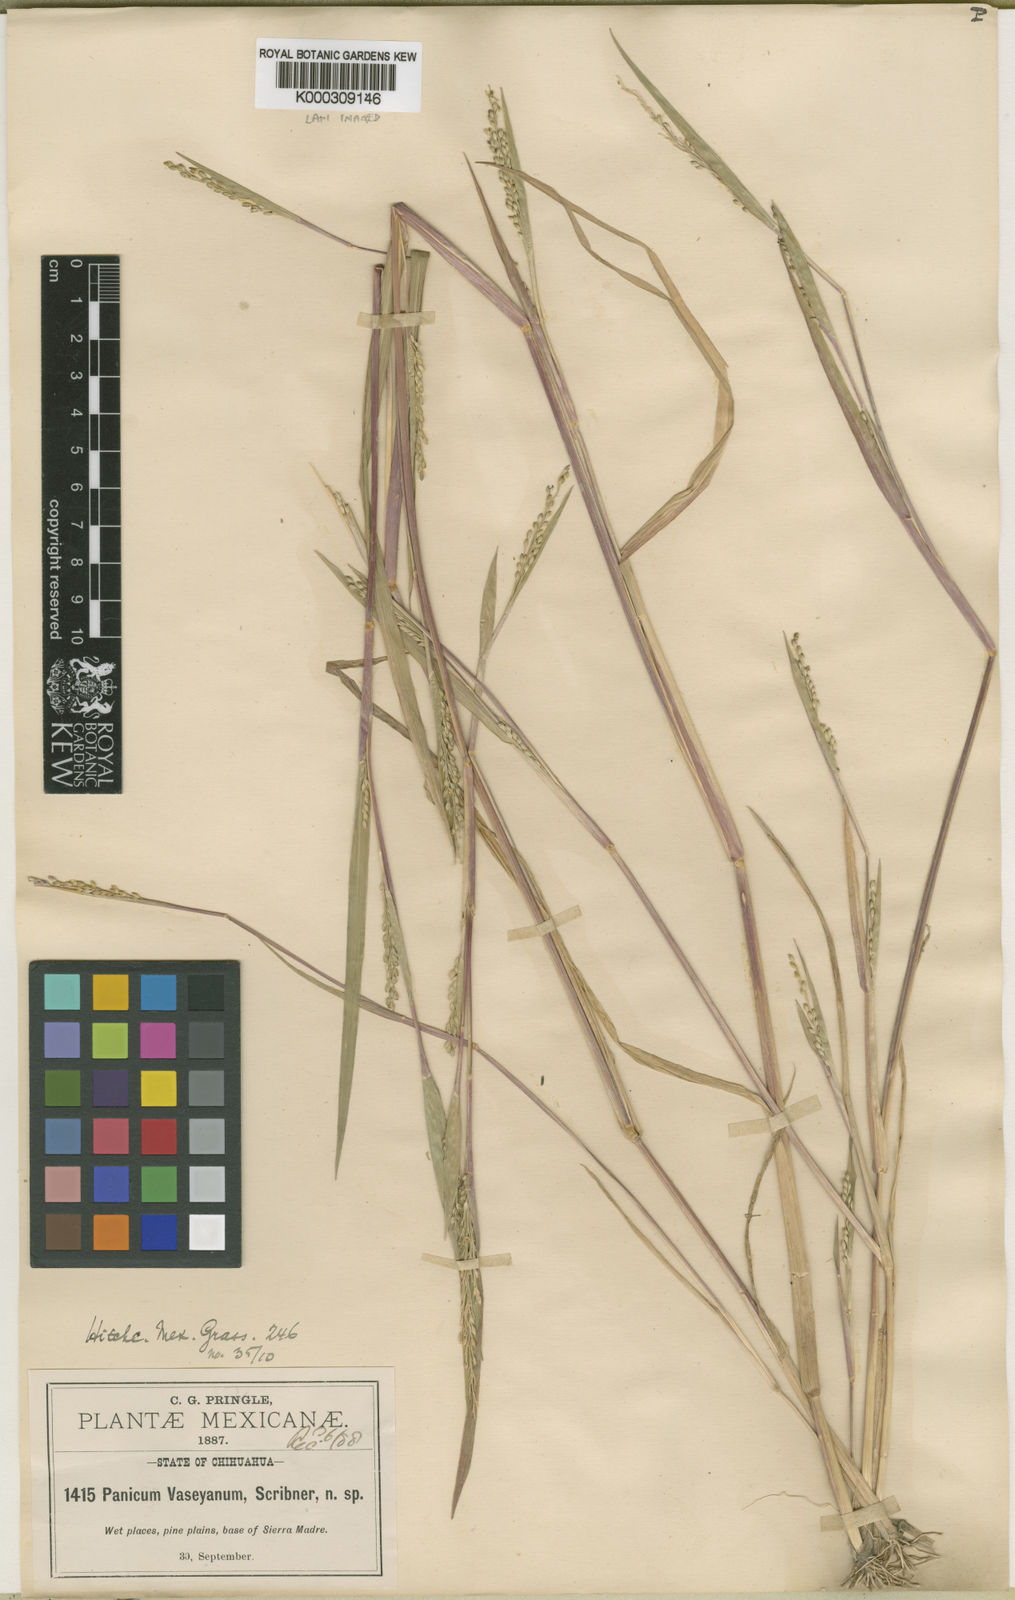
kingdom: Plantae
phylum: Tracheophyta
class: Liliopsida
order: Poales
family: Poaceae
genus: Panicum
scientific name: Panicum
